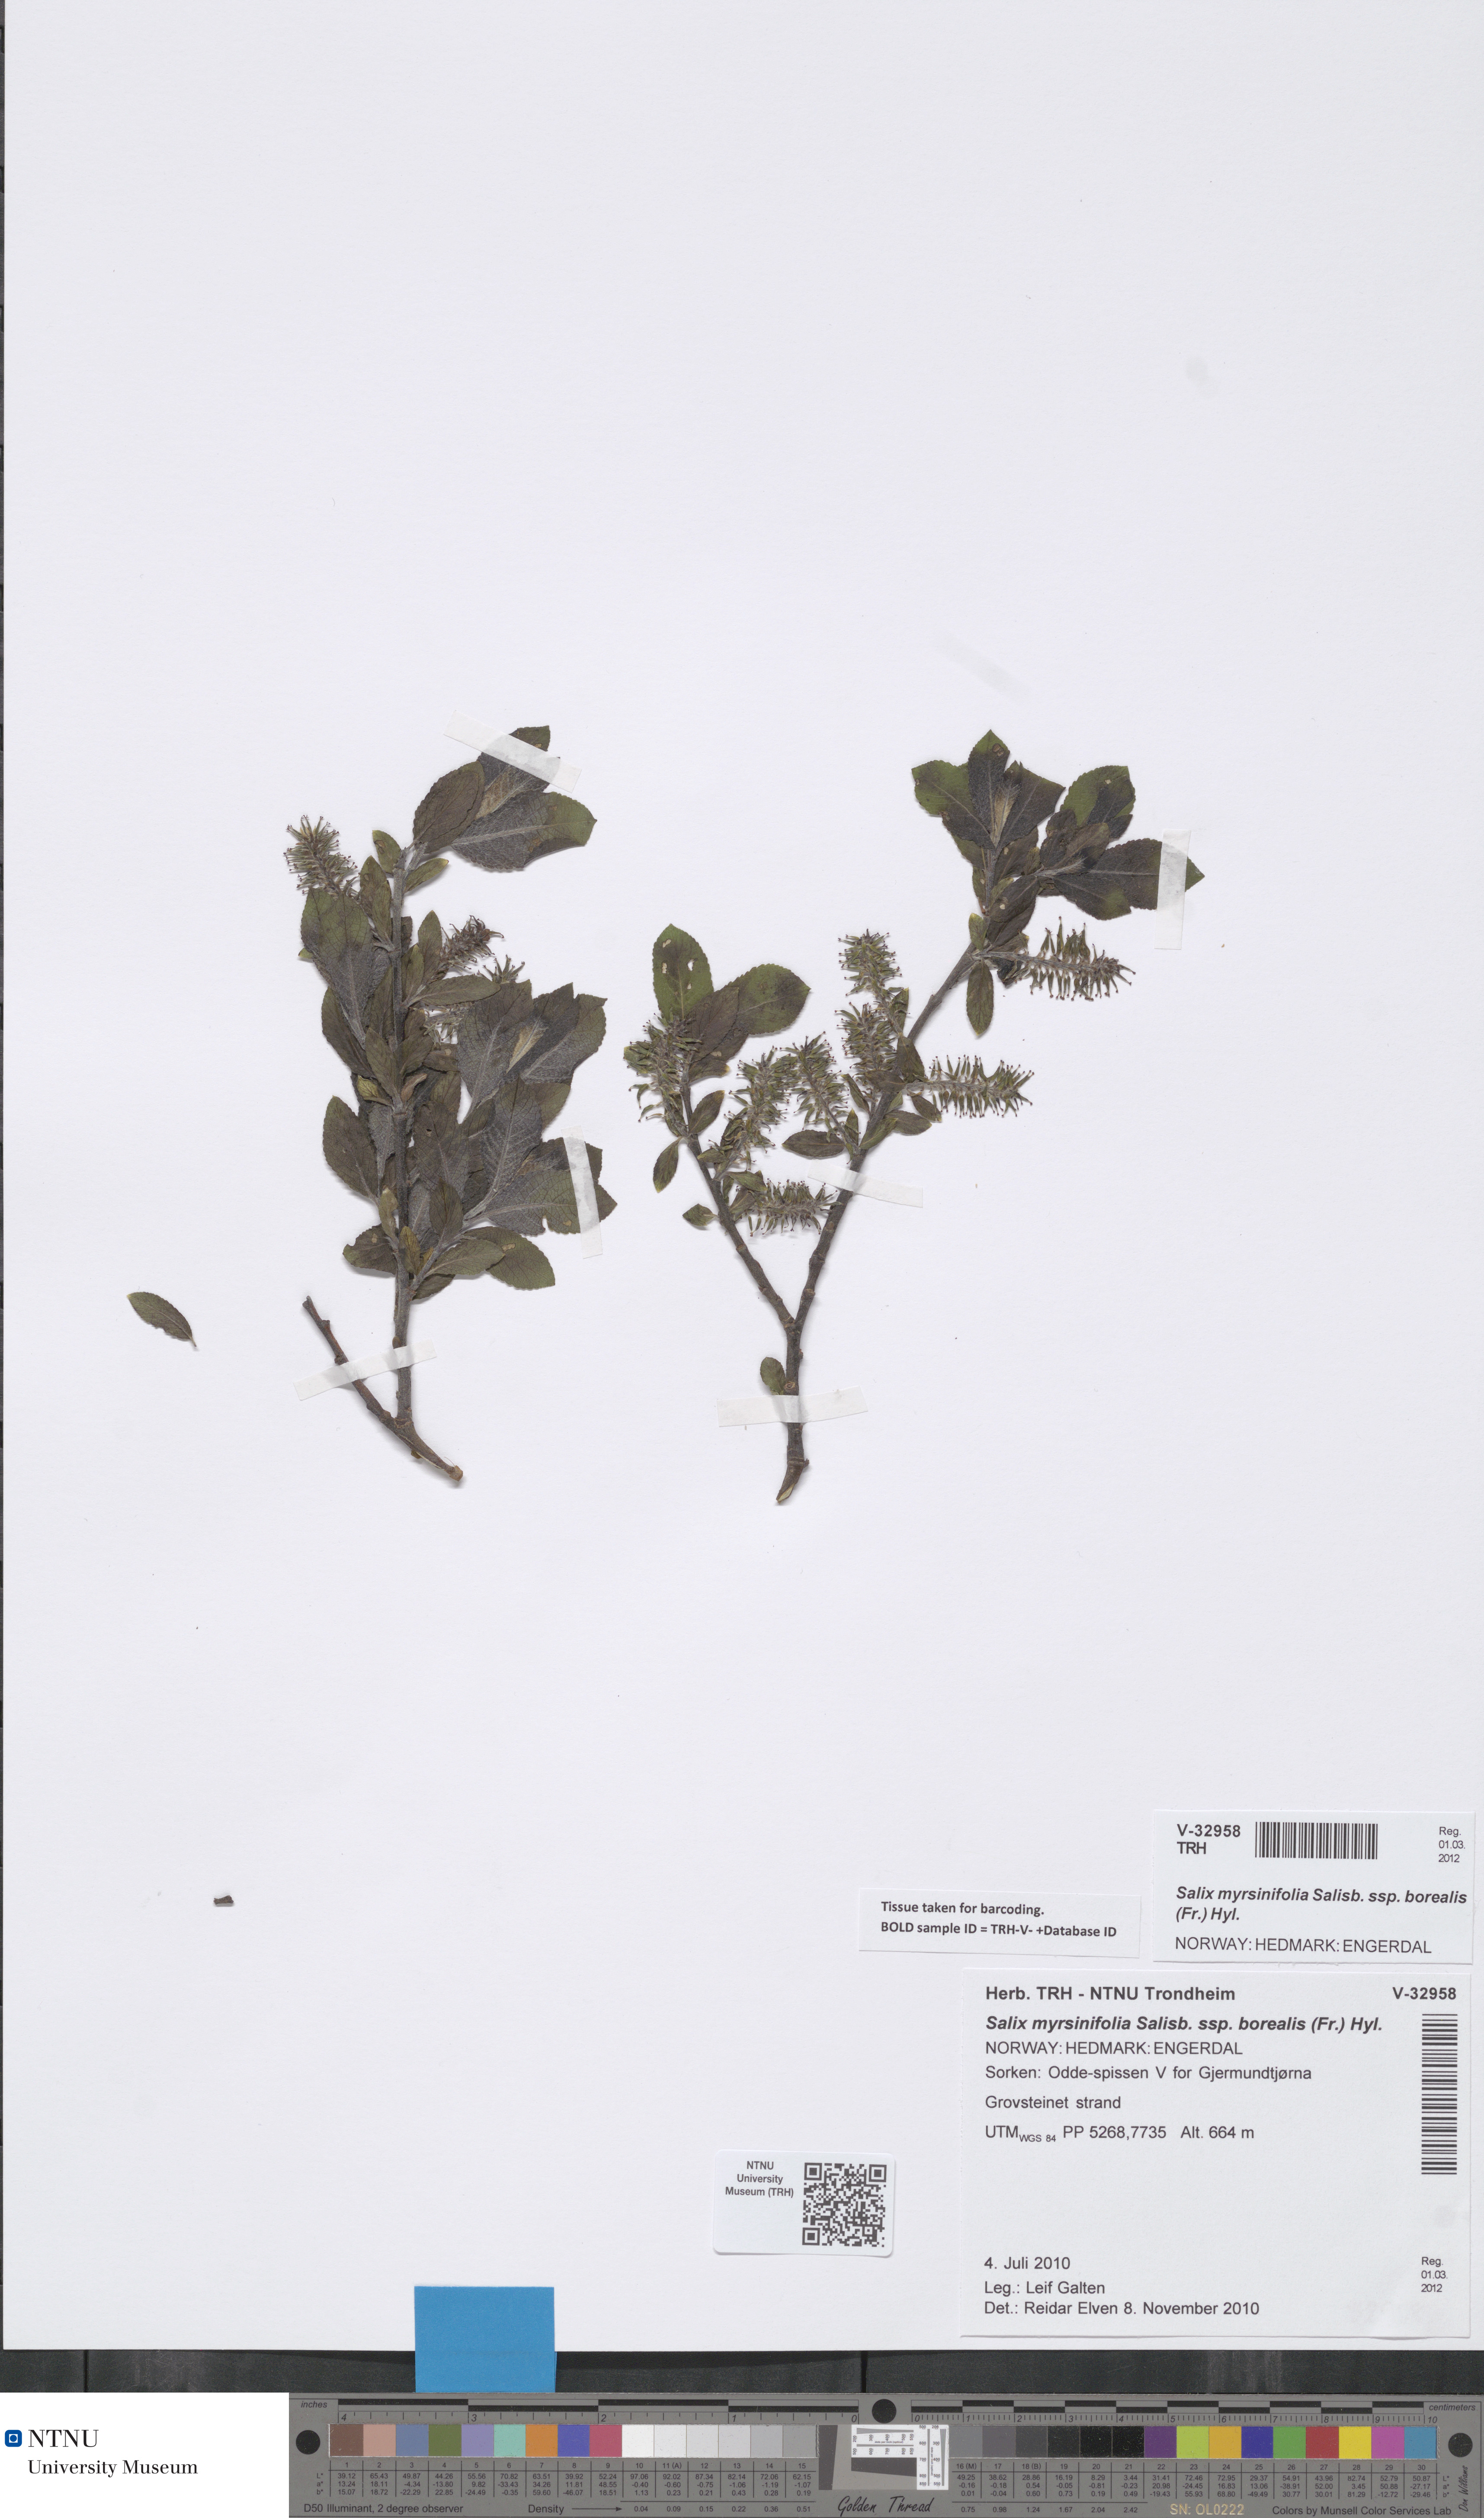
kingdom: Plantae
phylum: Tracheophyta
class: Magnoliopsida
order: Malpighiales
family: Salicaceae
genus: Salix
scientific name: Salix myrsinifolia
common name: Dark-leaved willow
